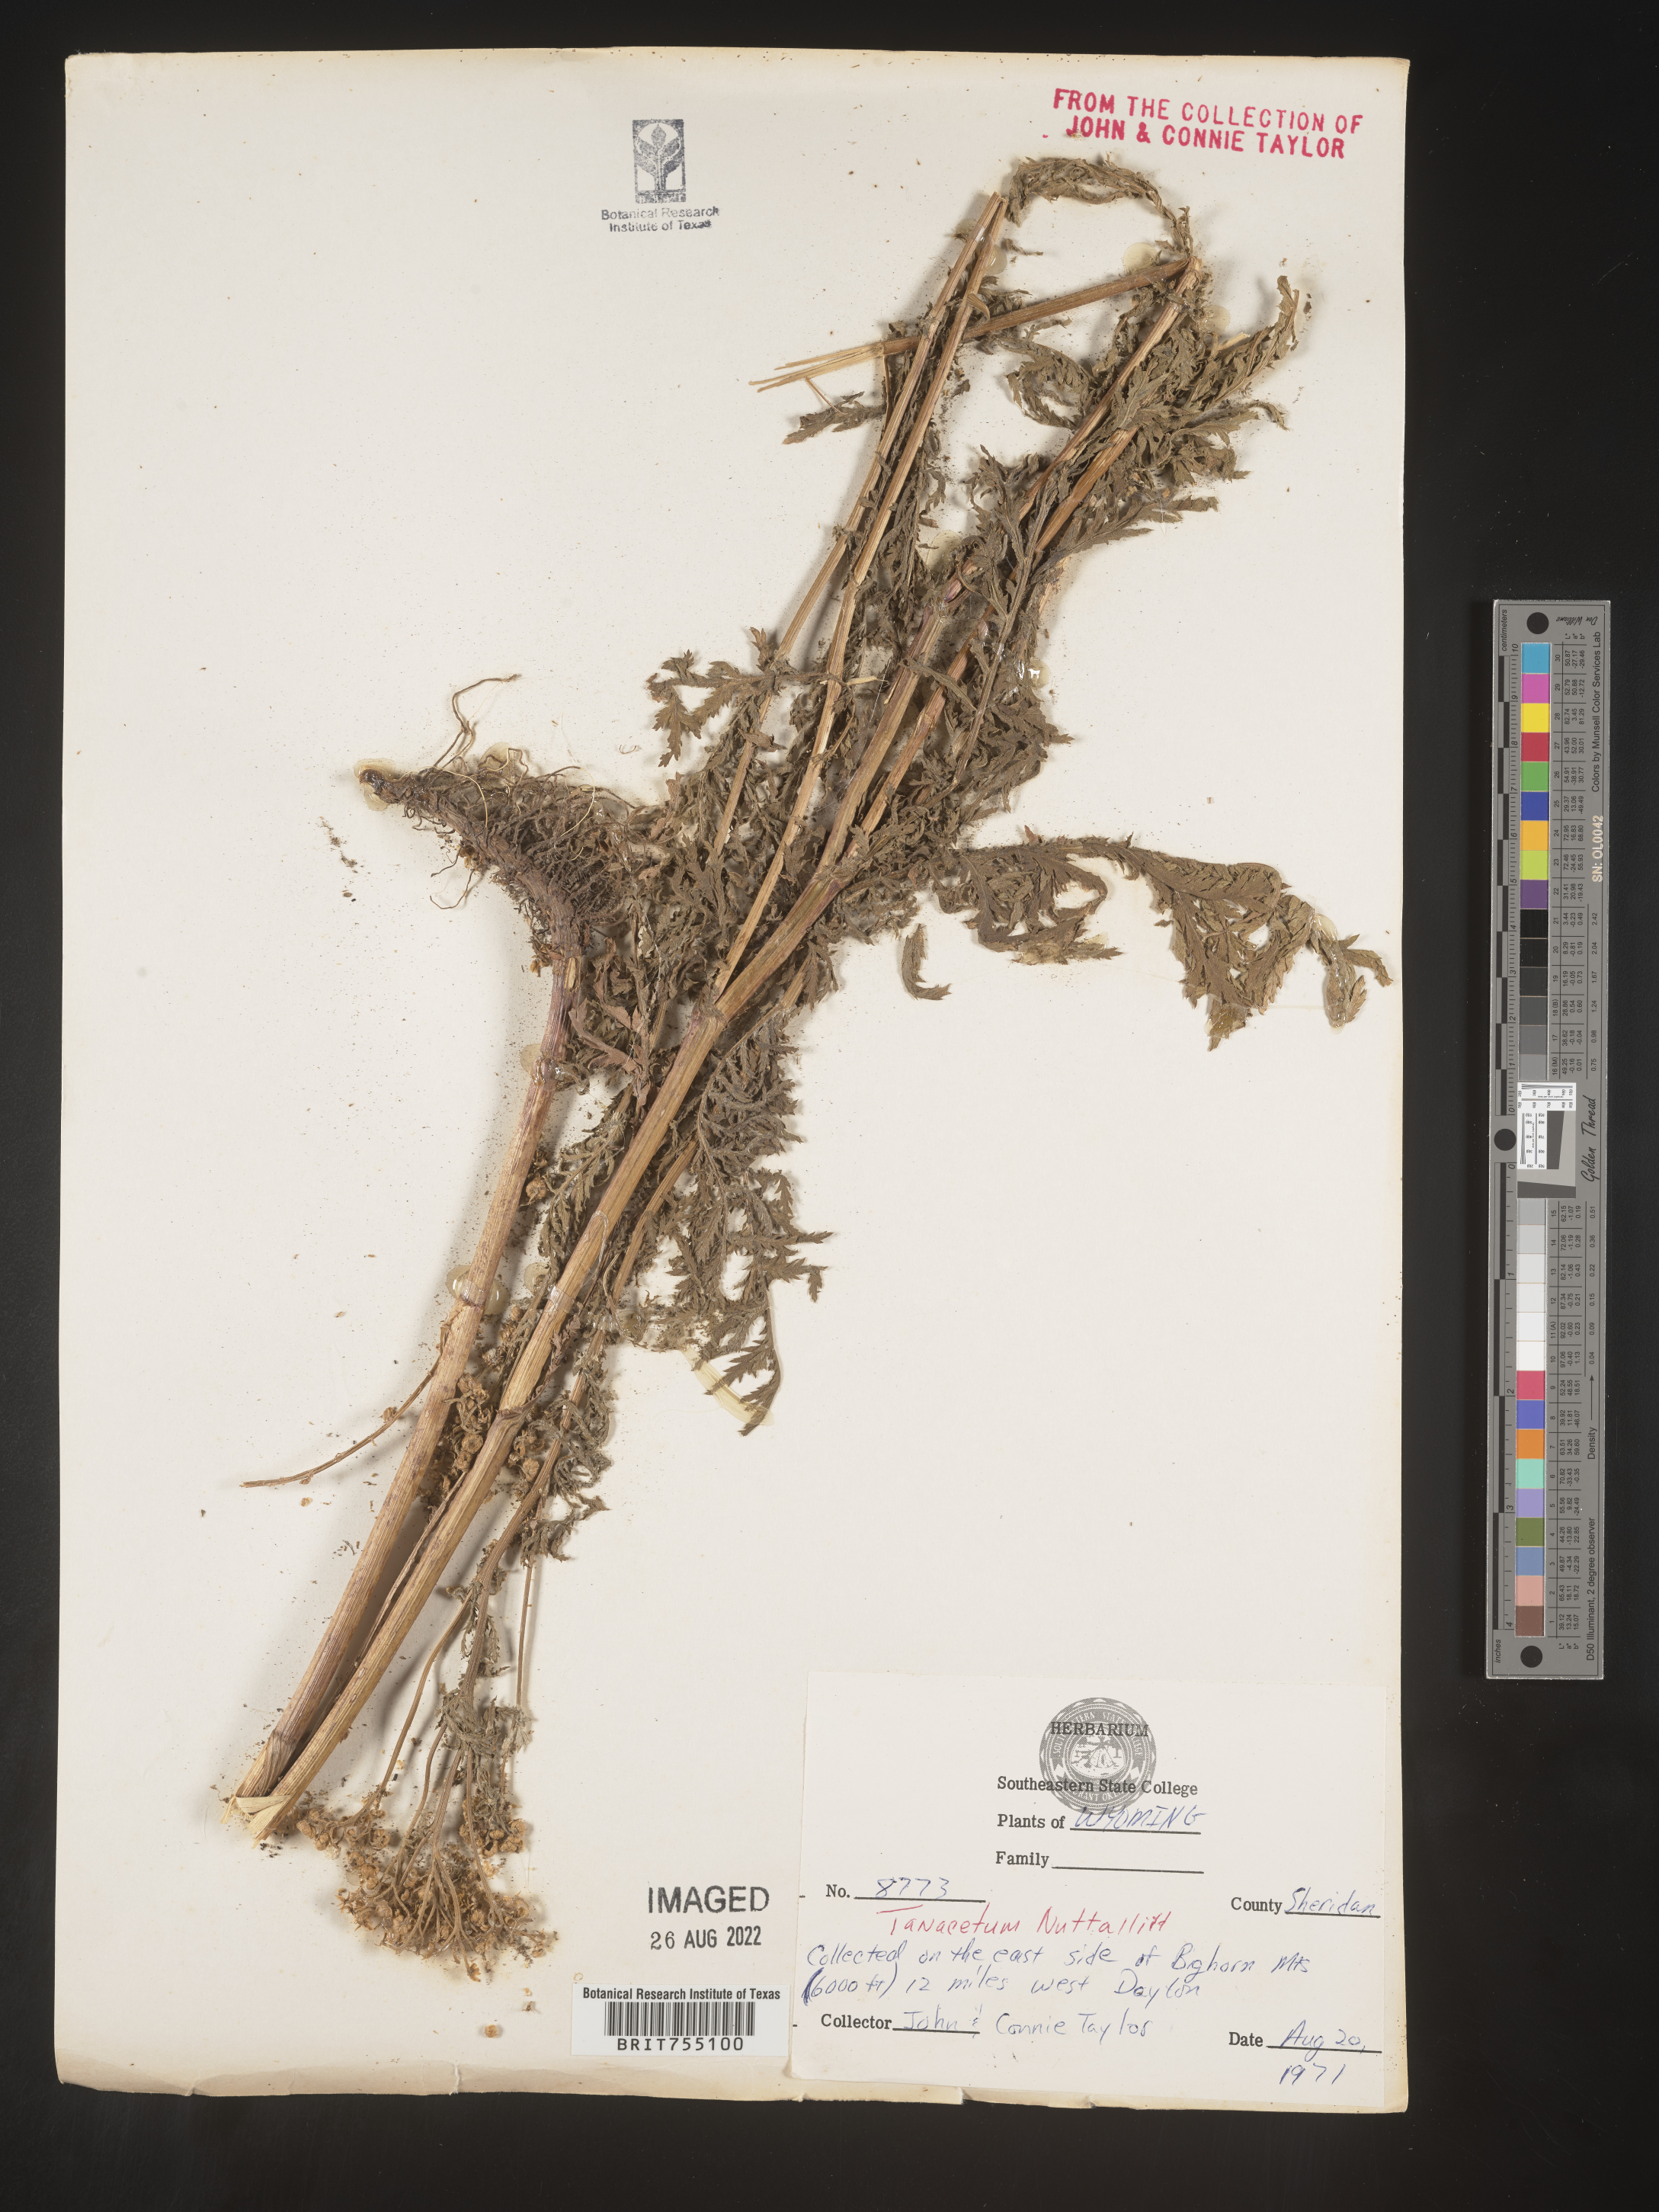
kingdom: Plantae
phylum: Tracheophyta
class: Magnoliopsida
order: Asterales
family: Asteraceae
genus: Tanacetum
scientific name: Tanacetum
